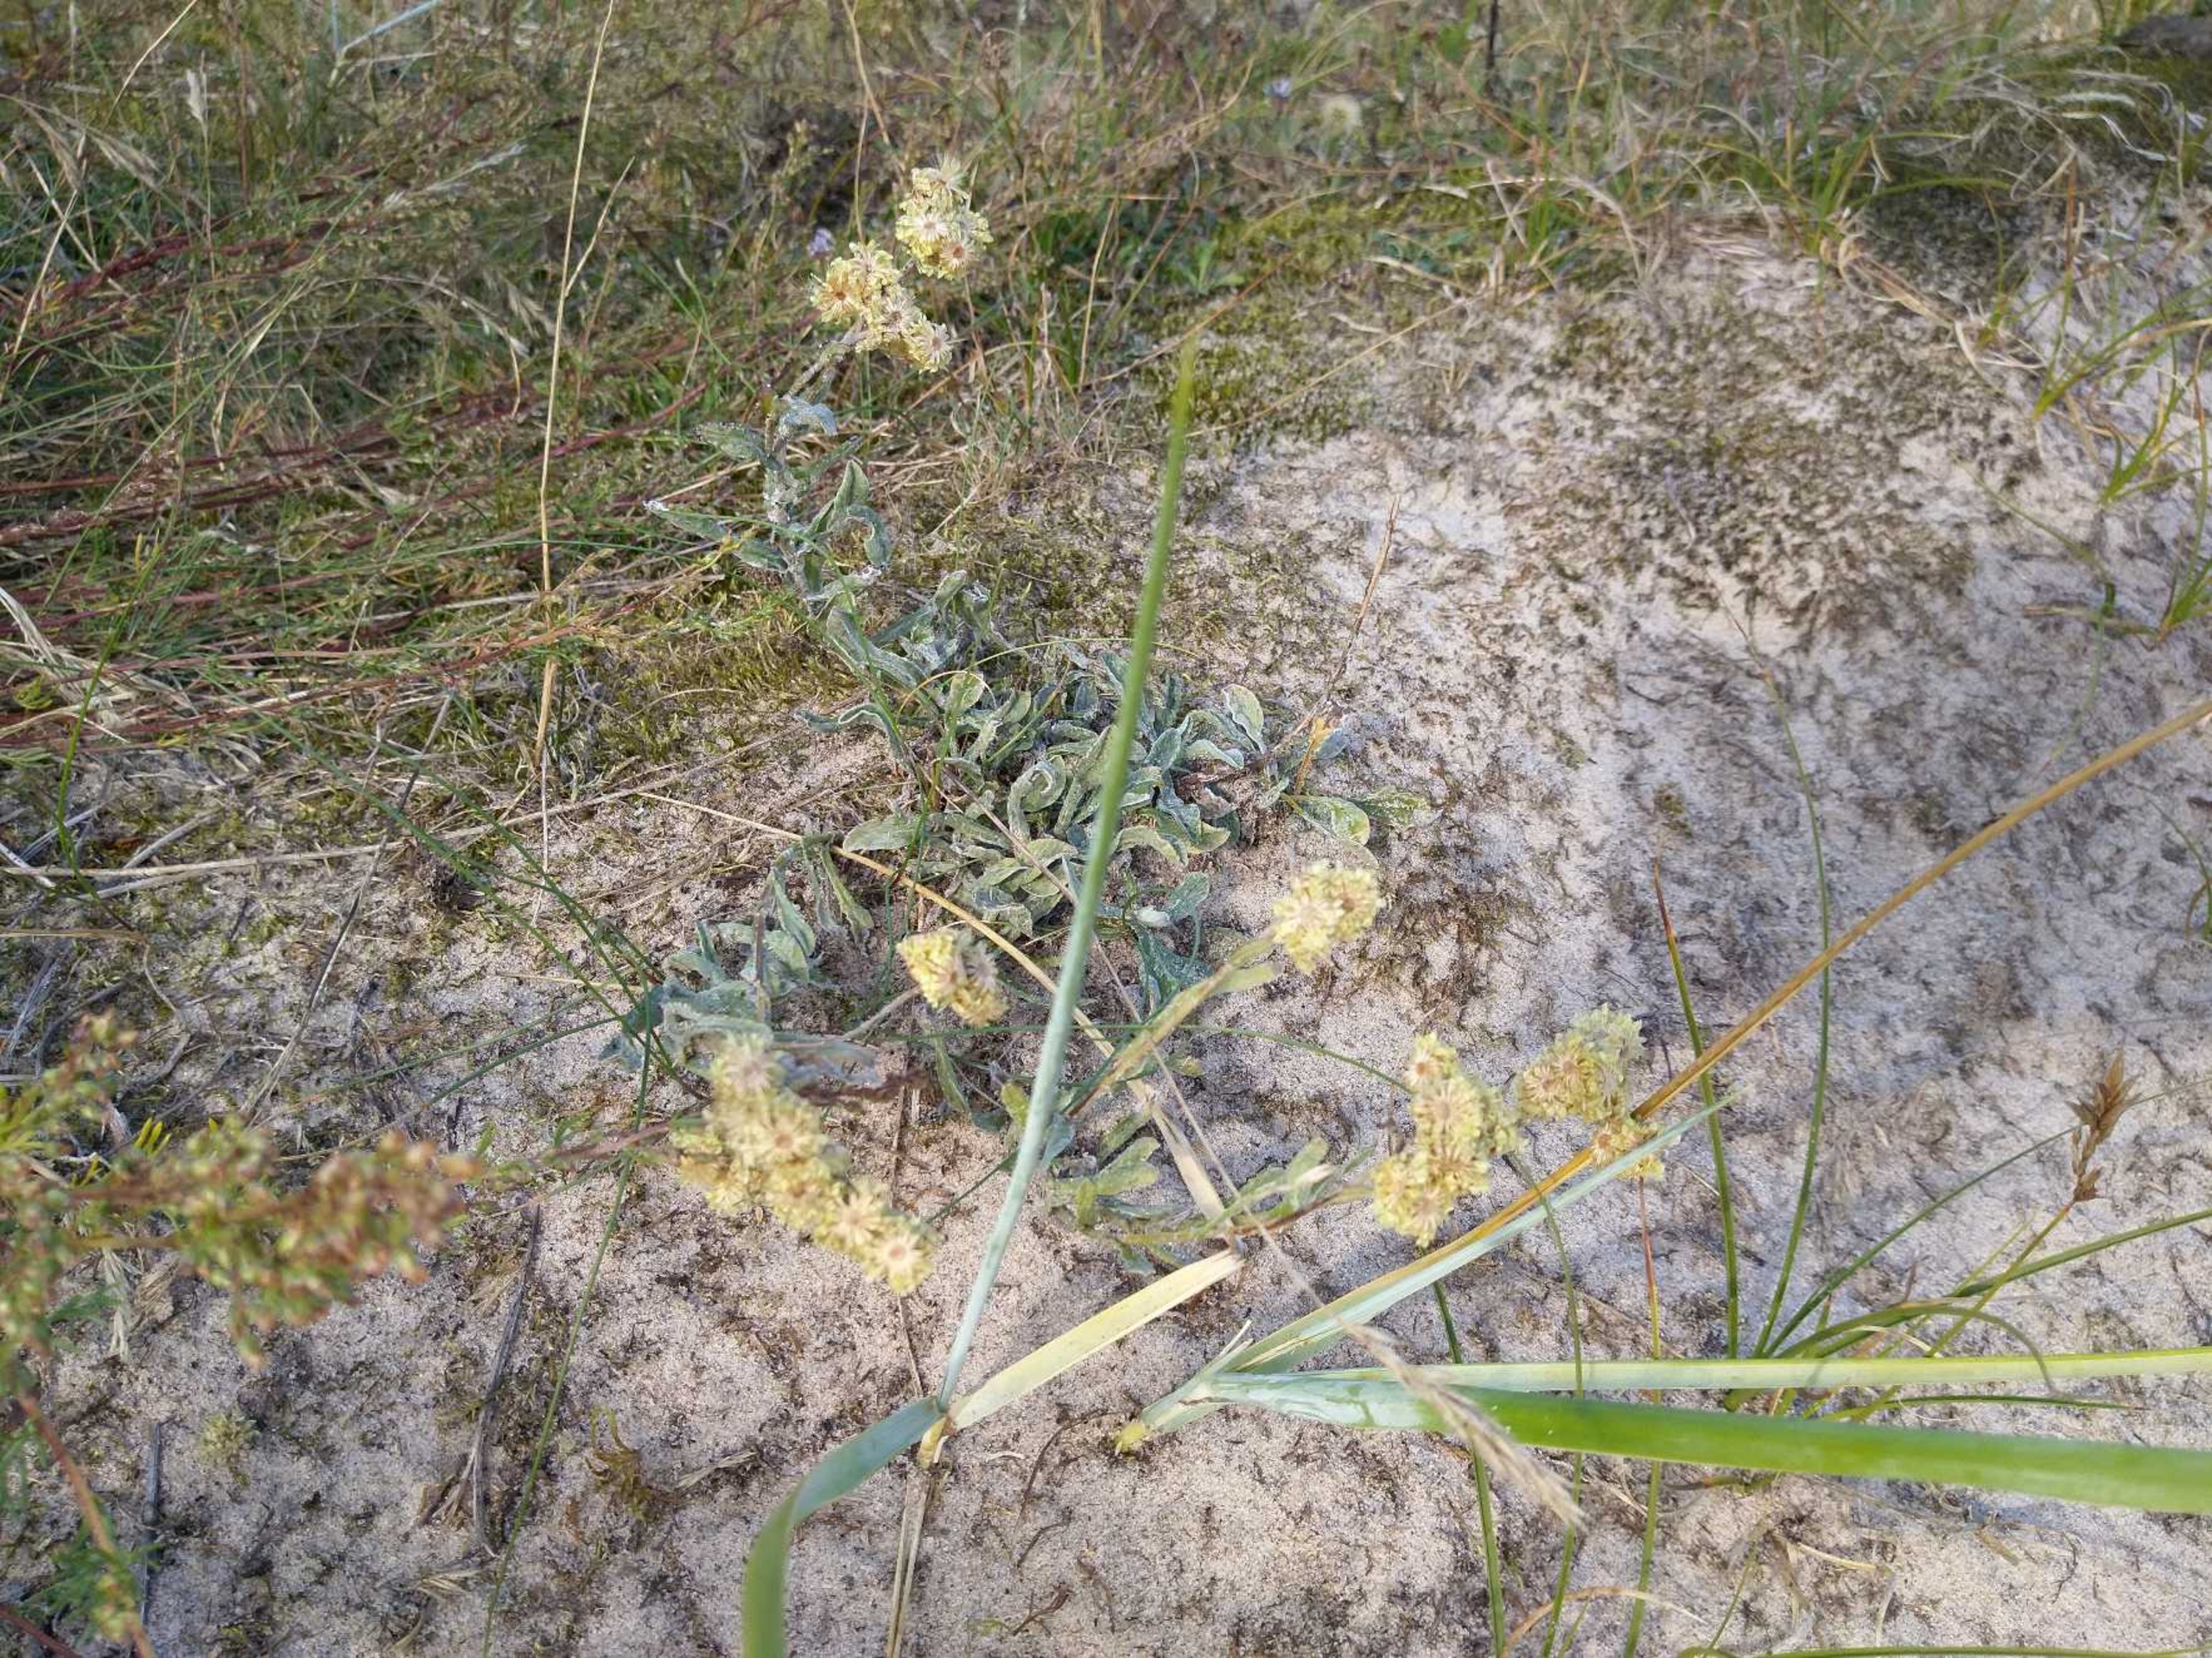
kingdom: Plantae
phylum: Tracheophyta
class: Magnoliopsida
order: Asterales
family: Asteraceae
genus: Helichrysum
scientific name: Helichrysum arenarium
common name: Gul evighedsblomst
